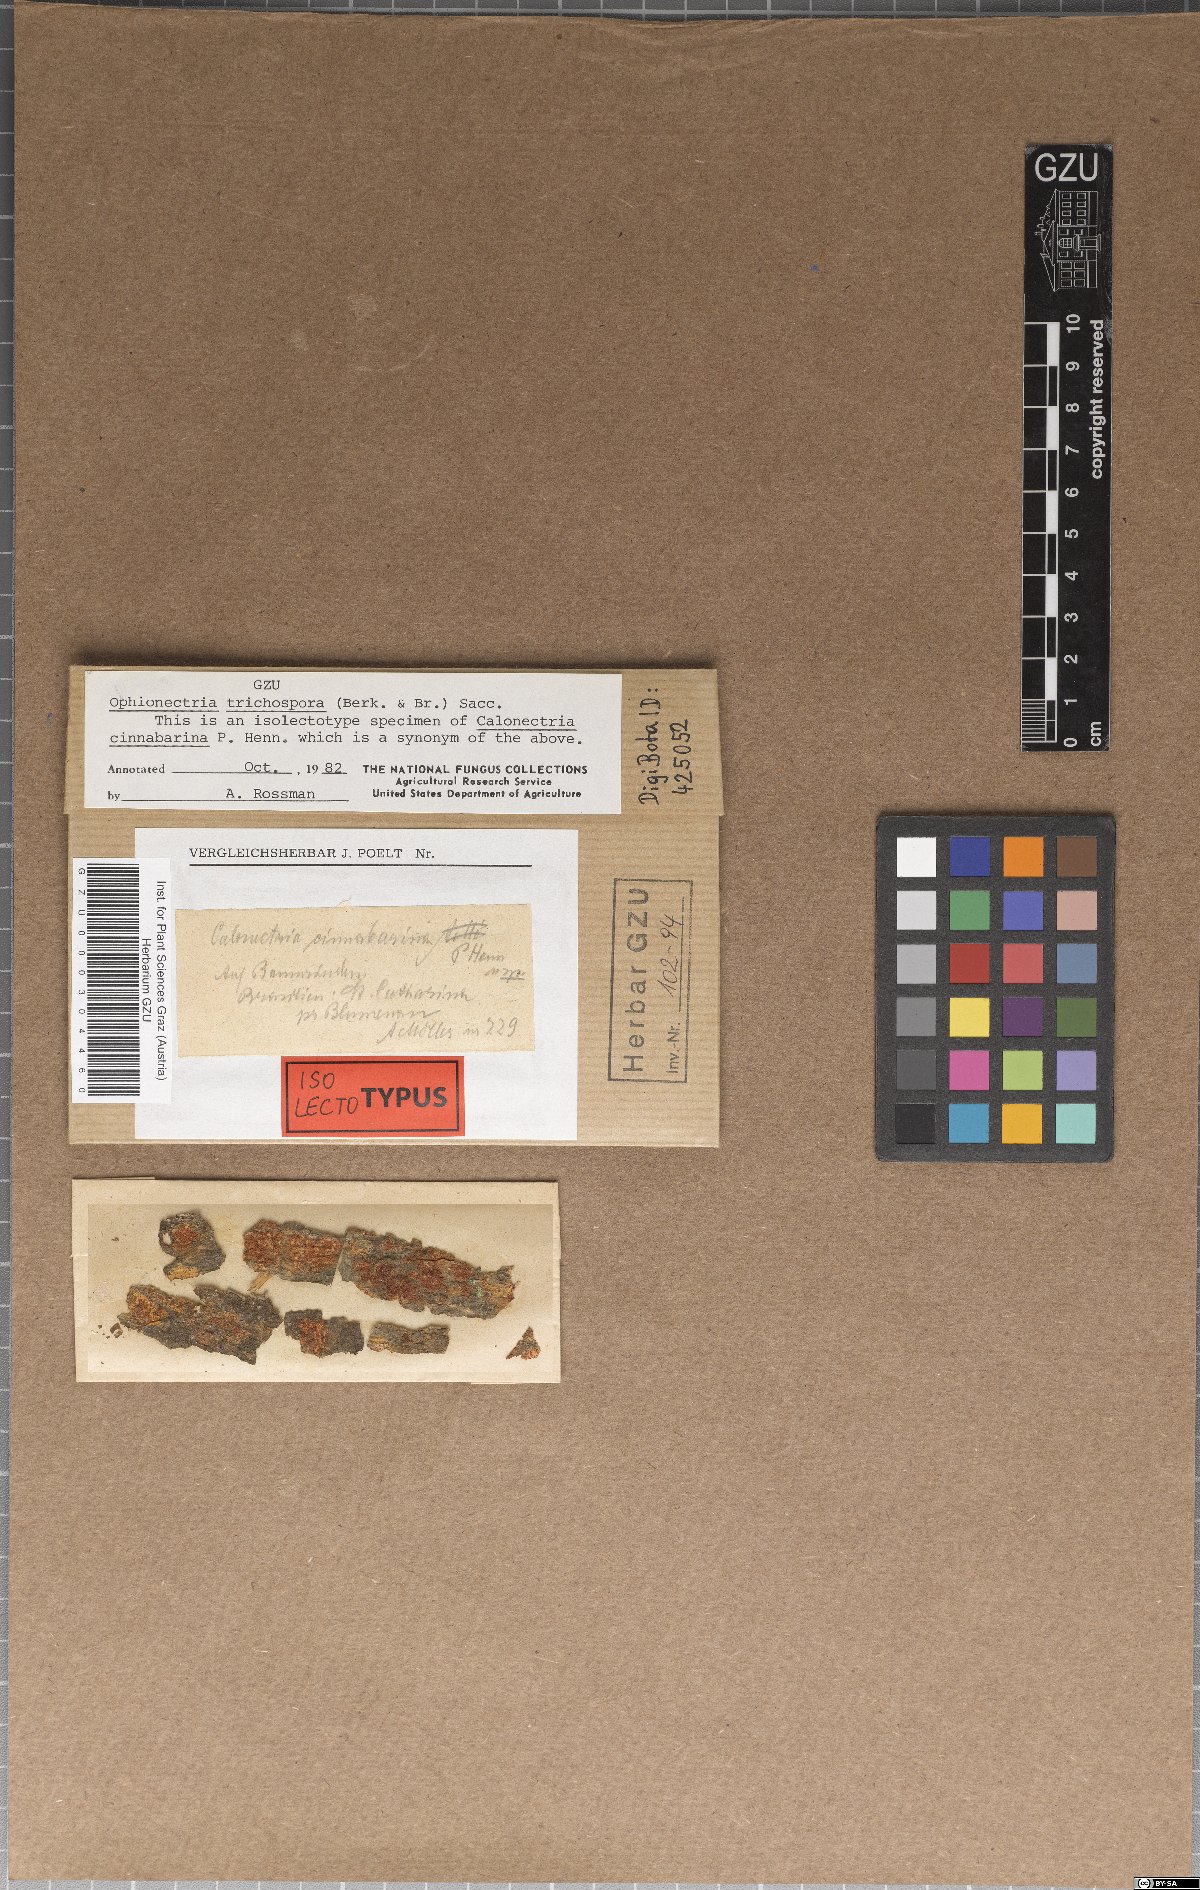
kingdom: Fungi
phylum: Ascomycota
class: Sordariomycetes
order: Hypocreales
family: Nectriaceae
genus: Calonectria
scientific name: Calonectria
